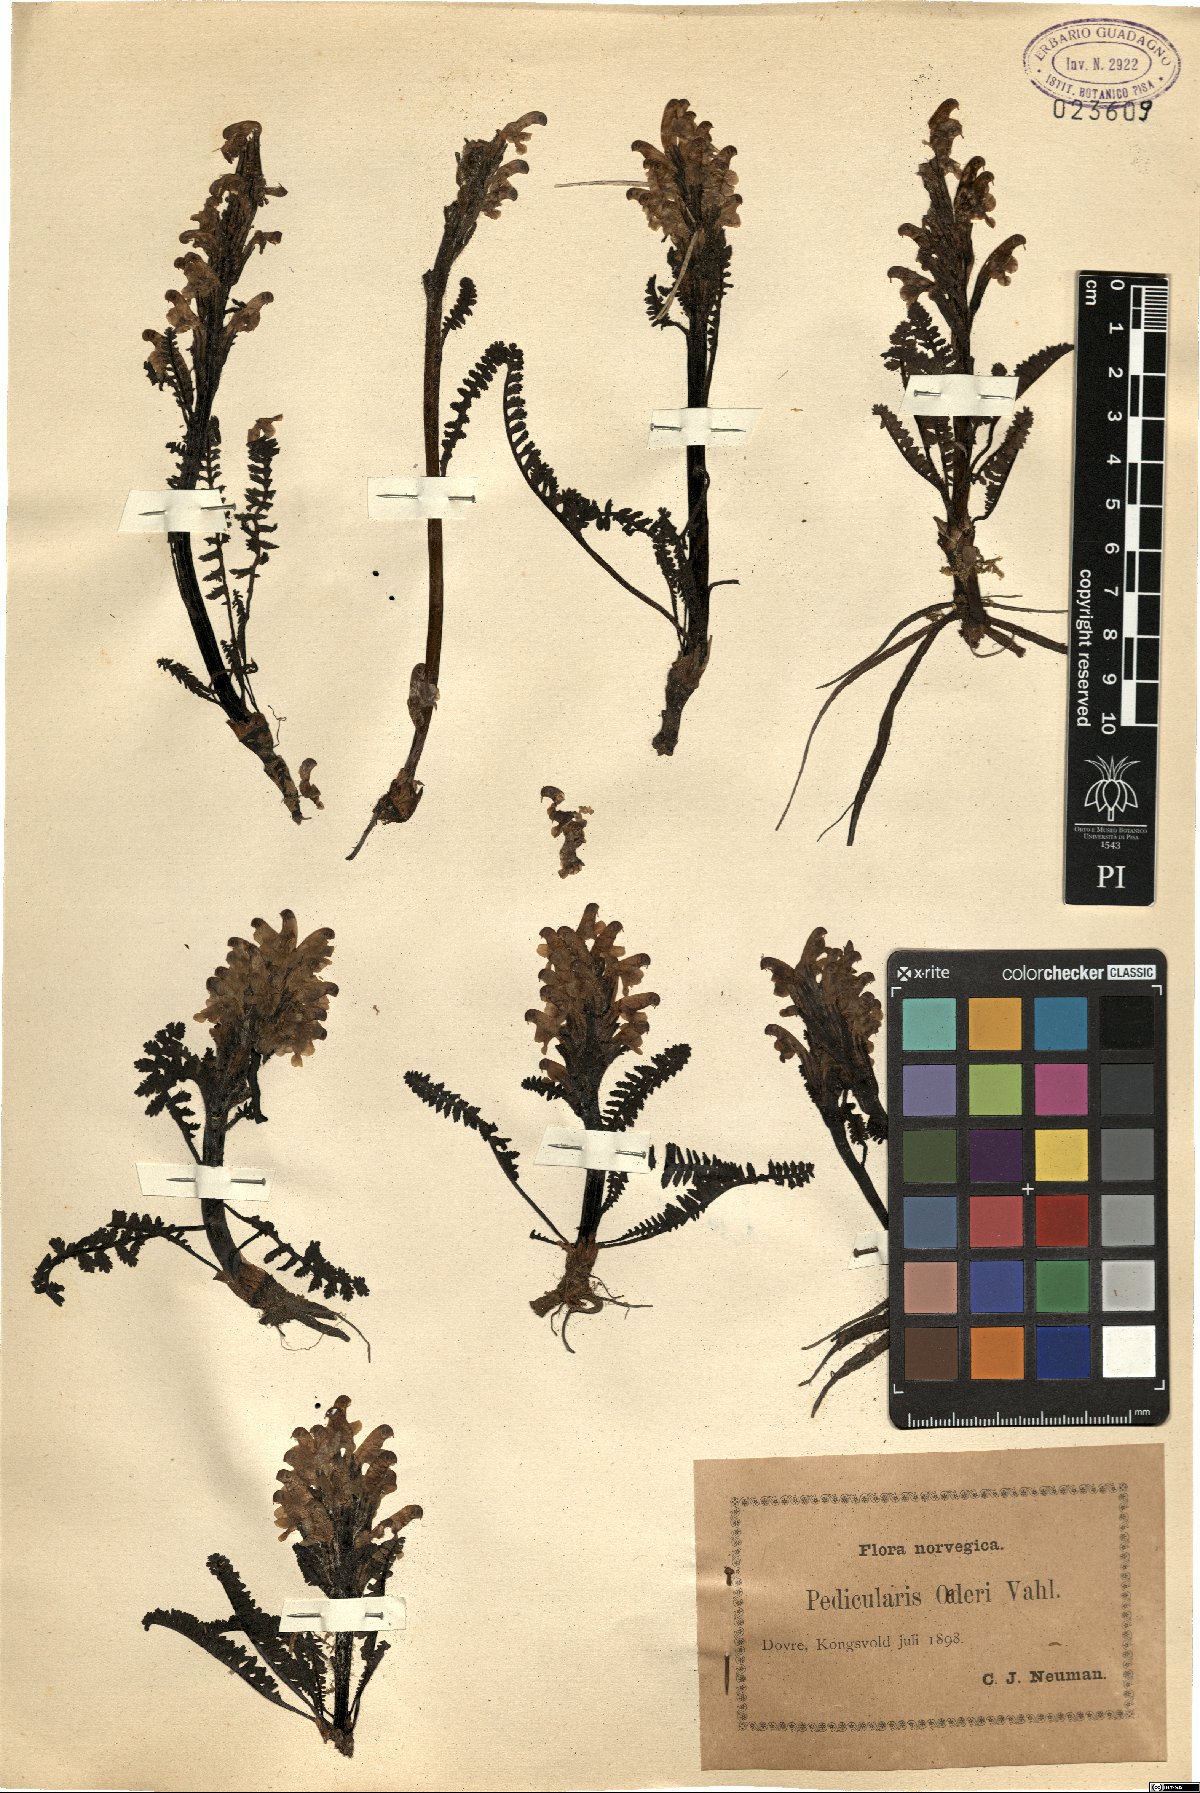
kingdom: Plantae
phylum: Tracheophyta
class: Magnoliopsida
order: Lamiales
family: Orobanchaceae
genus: Pedicularis
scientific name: Pedicularis oederi
